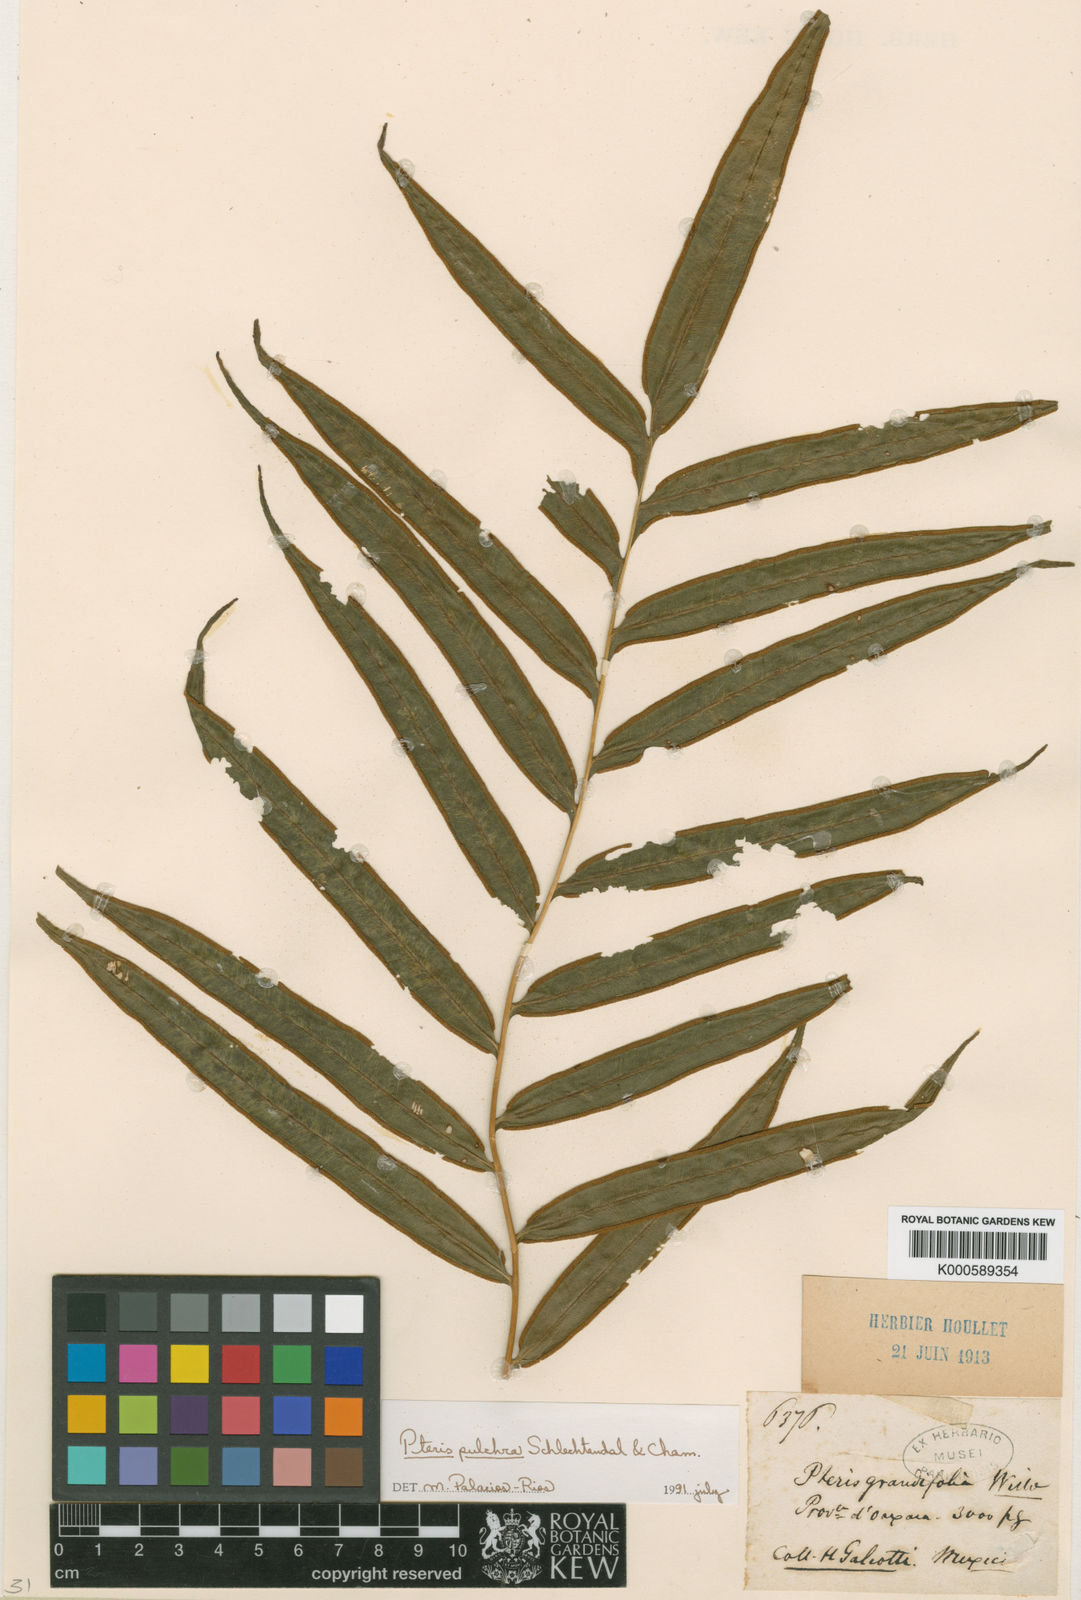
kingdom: Plantae
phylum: Tracheophyta
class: Polypodiopsida
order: Polypodiales
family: Pteridaceae
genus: Pteris
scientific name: Pteris
